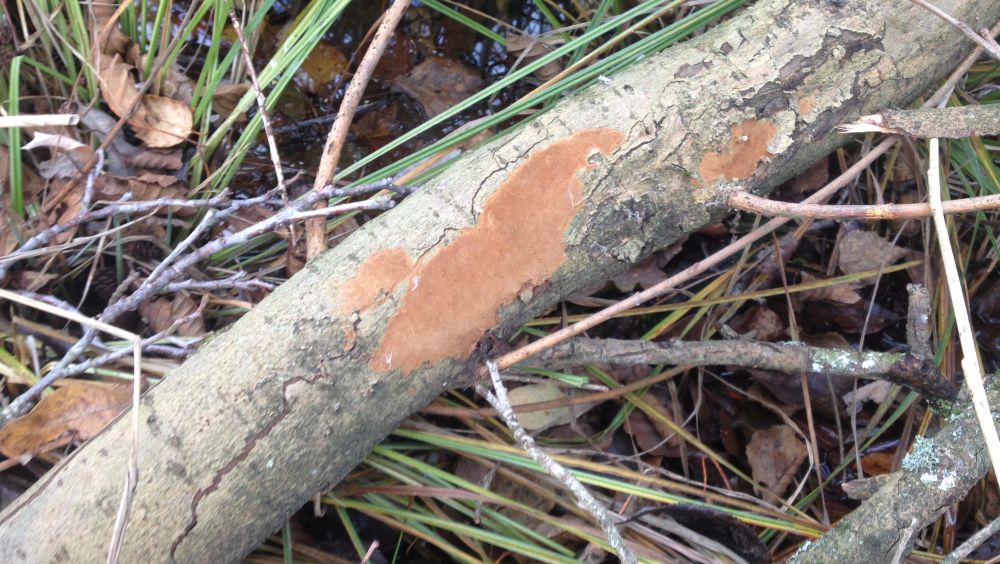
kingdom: Fungi
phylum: Basidiomycota
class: Agaricomycetes
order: Hymenochaetales
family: Hymenochaetaceae
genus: Fomitiporia
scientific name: Fomitiporia punctata
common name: pude-ildporesvamp
